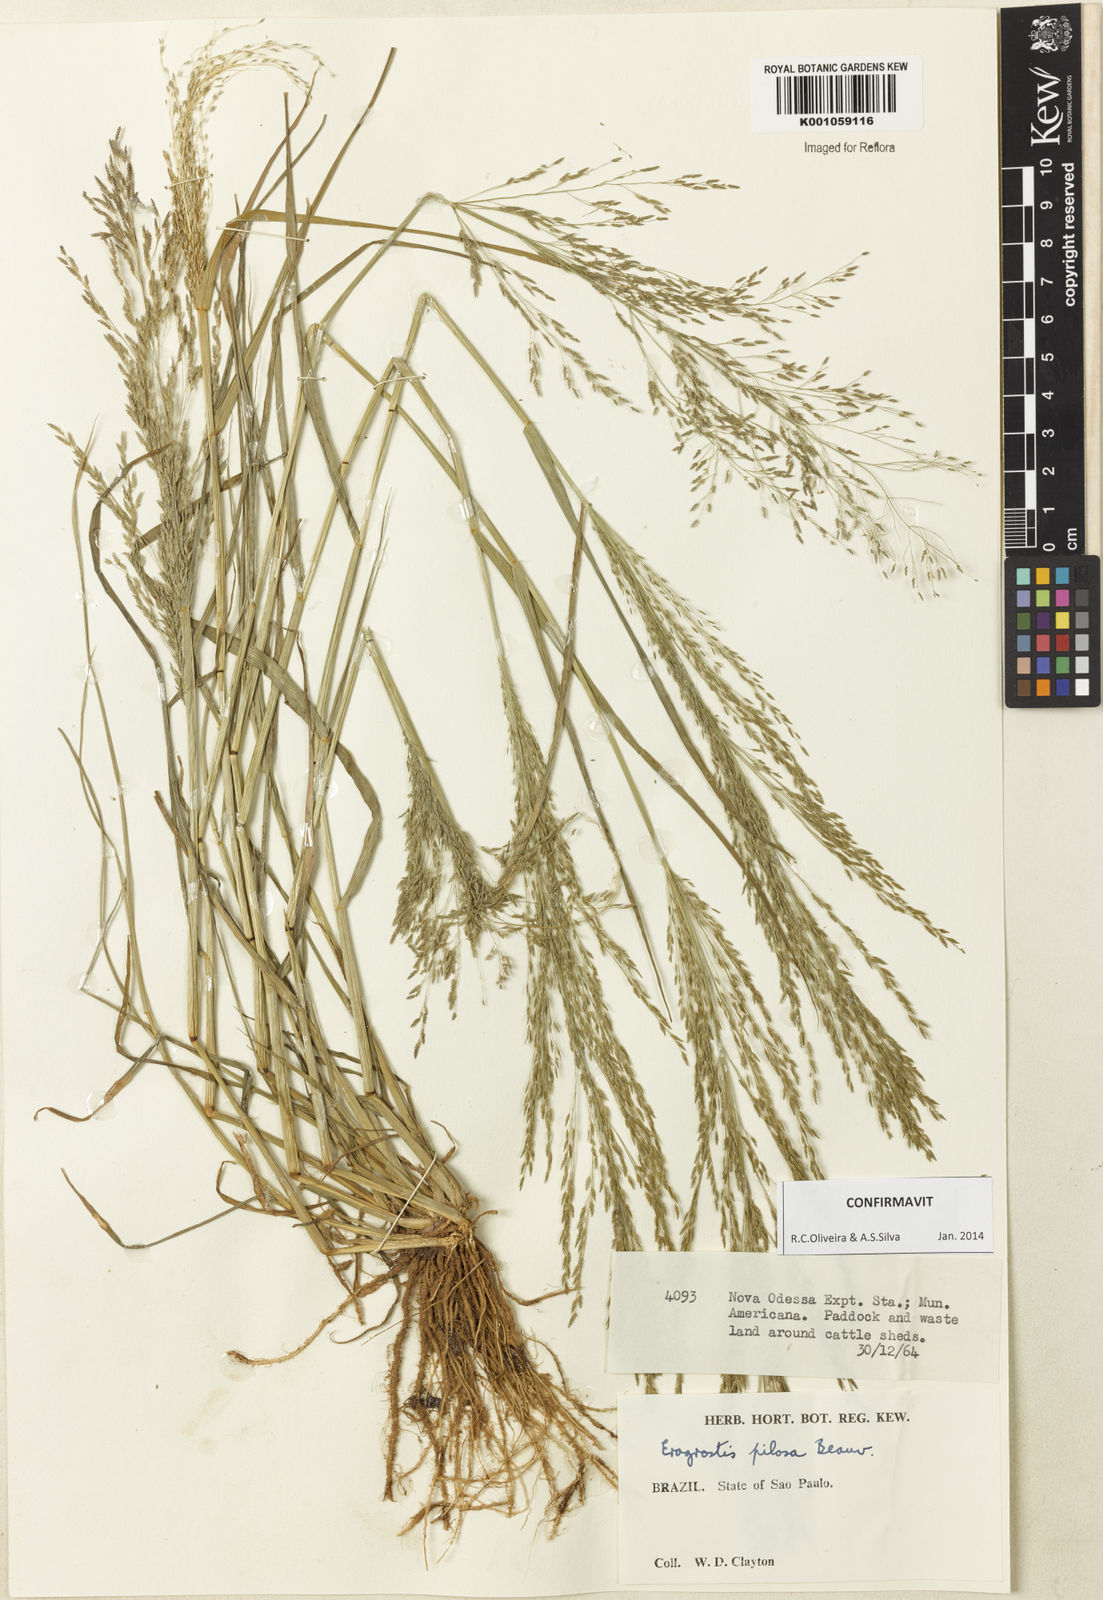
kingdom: Plantae
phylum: Tracheophyta
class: Liliopsida
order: Poales
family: Poaceae
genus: Eragrostis
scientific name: Eragrostis pilosa
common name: Indian lovegrass
